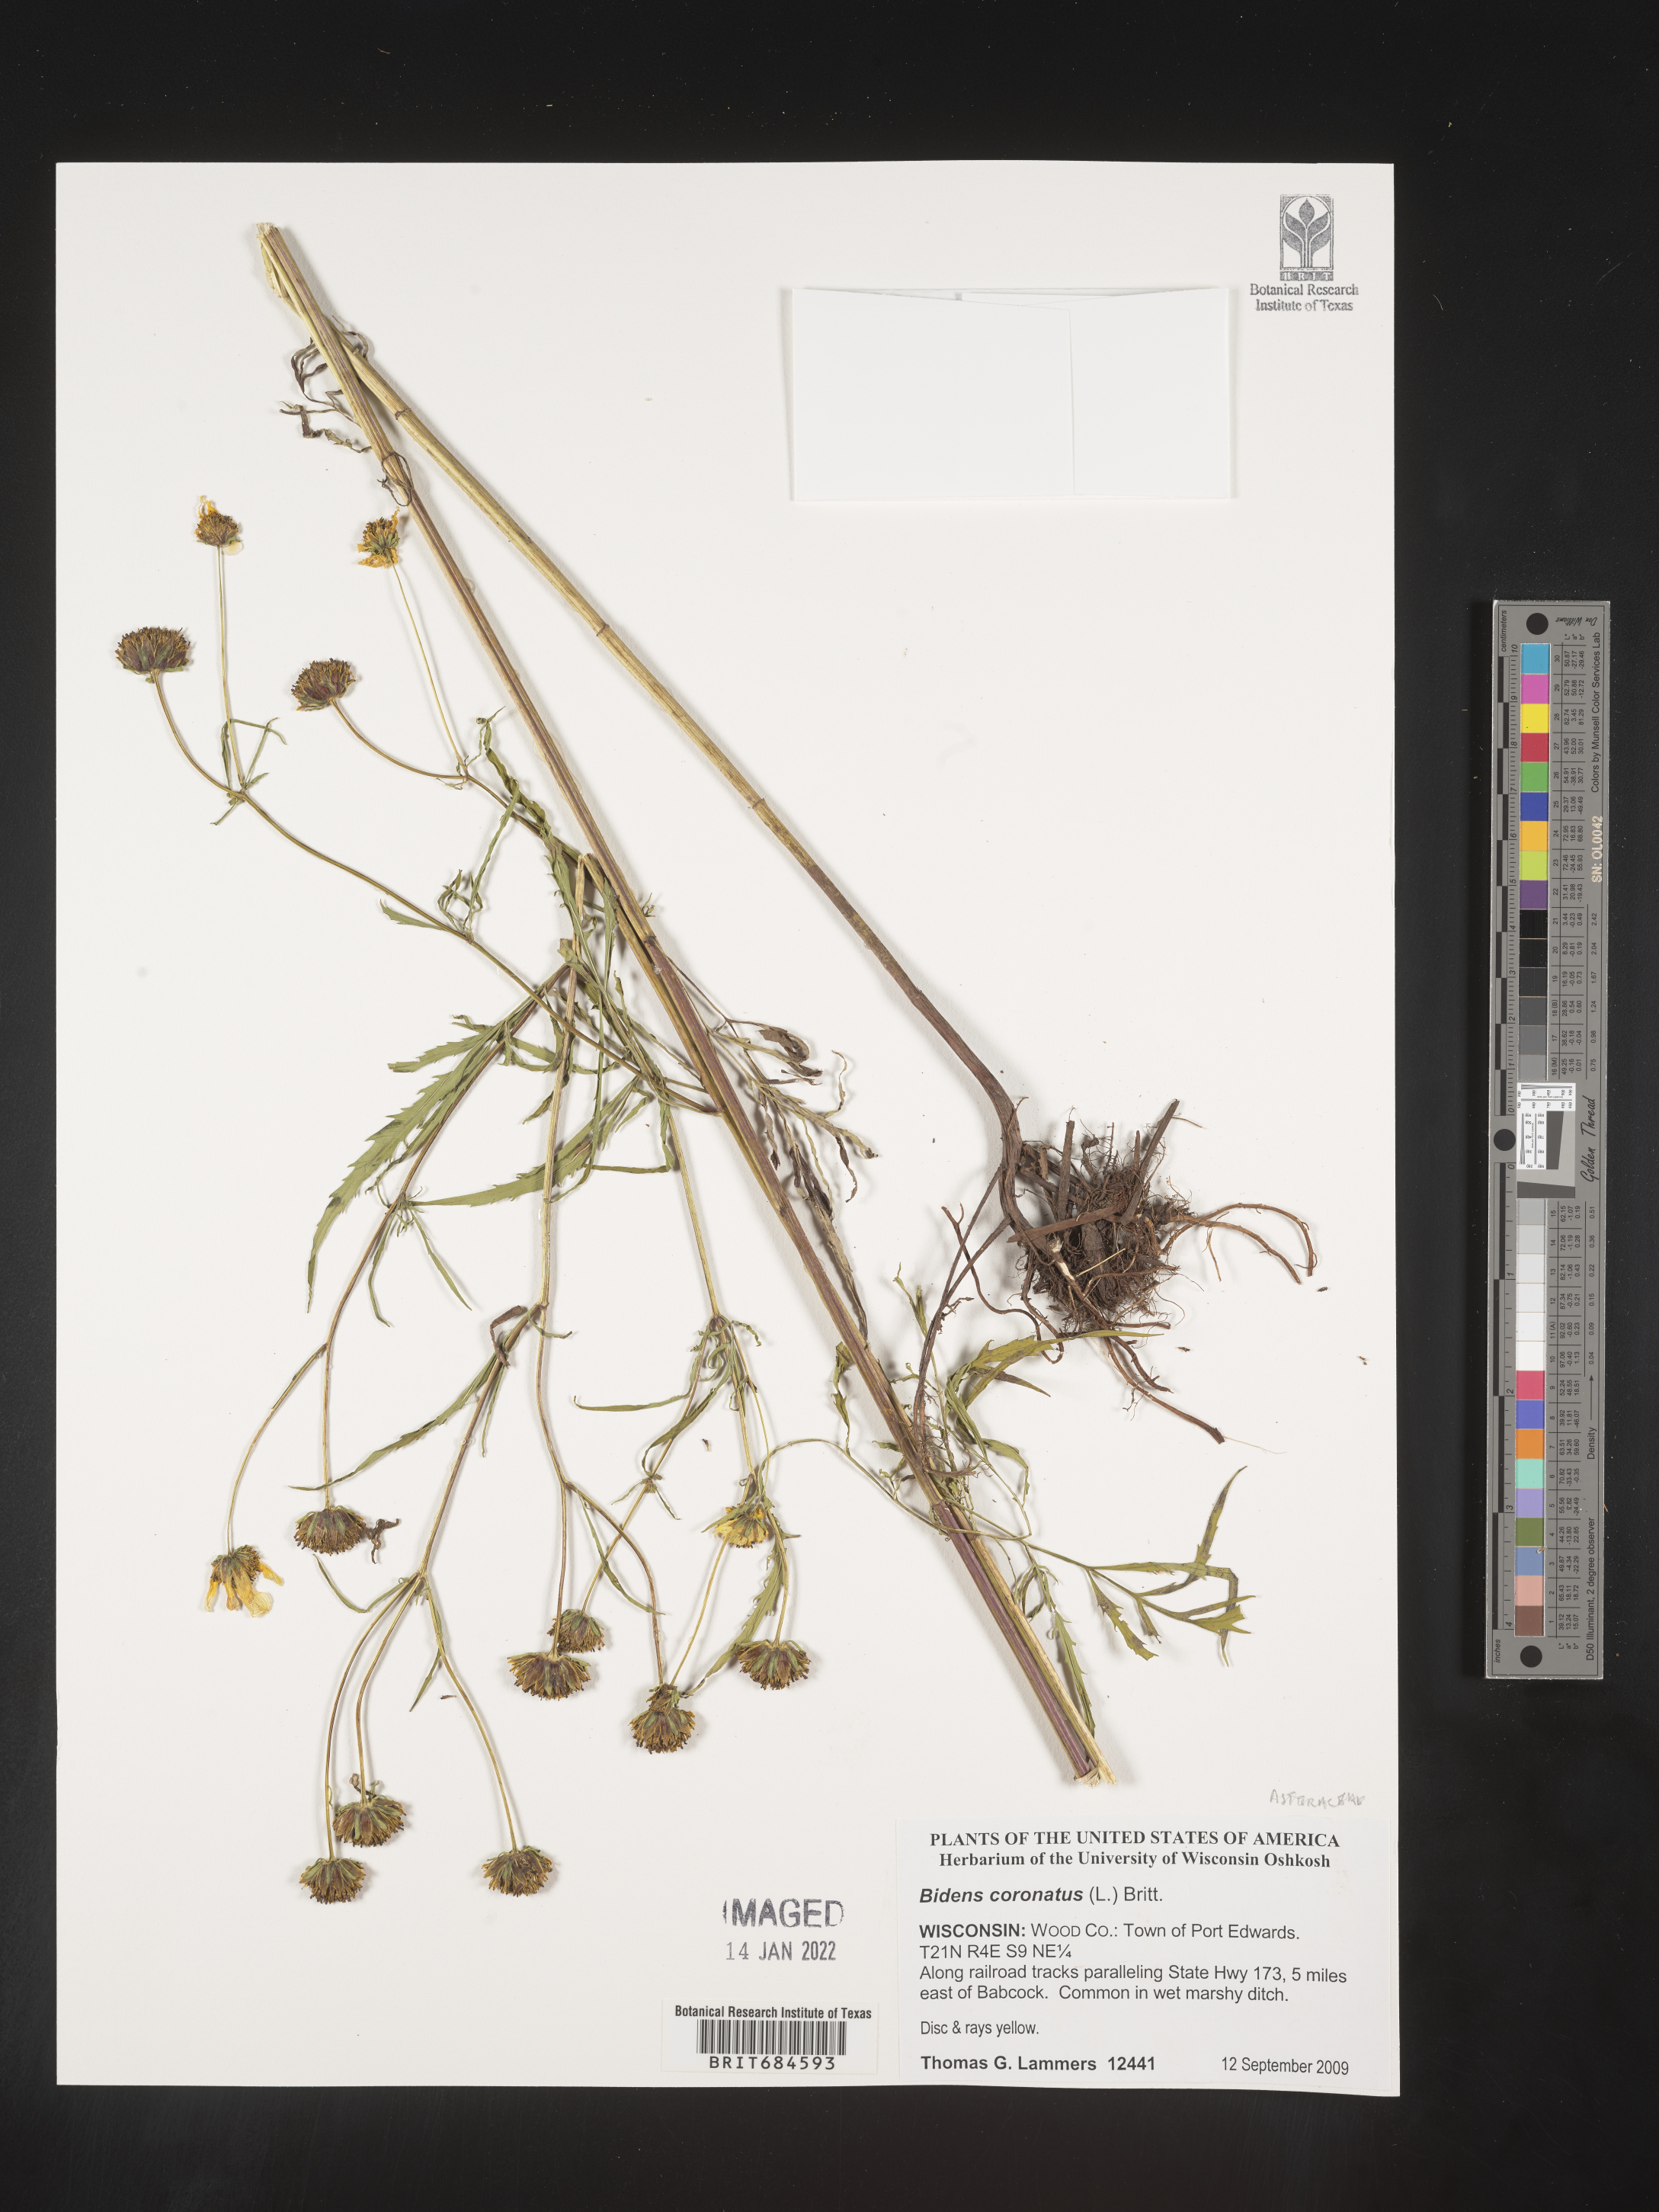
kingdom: Plantae
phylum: Tracheophyta
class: Magnoliopsida
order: Asterales
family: Asteraceae
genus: Bidens
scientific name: Bidens trichosperma
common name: Crowned beggarticks
